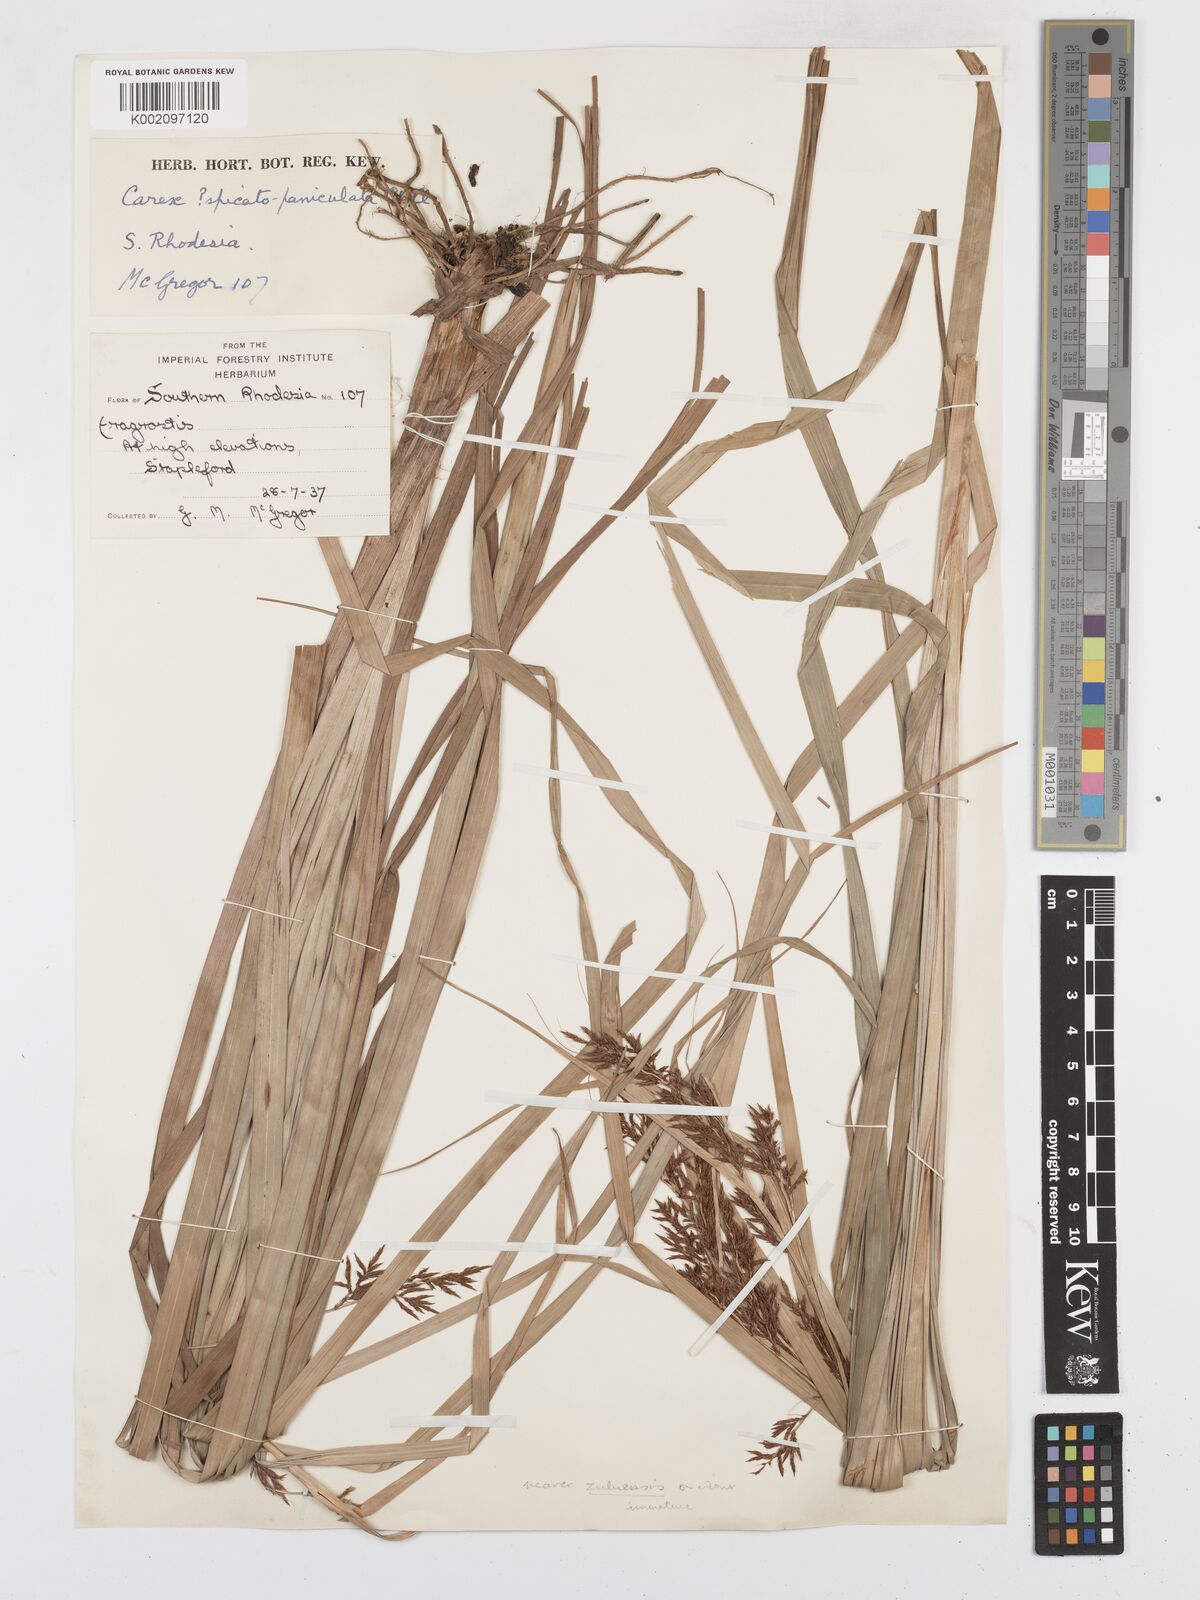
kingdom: Plantae
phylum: Tracheophyta
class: Liliopsida
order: Poales
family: Cyperaceae
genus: Carex
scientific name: Carex steudneri
